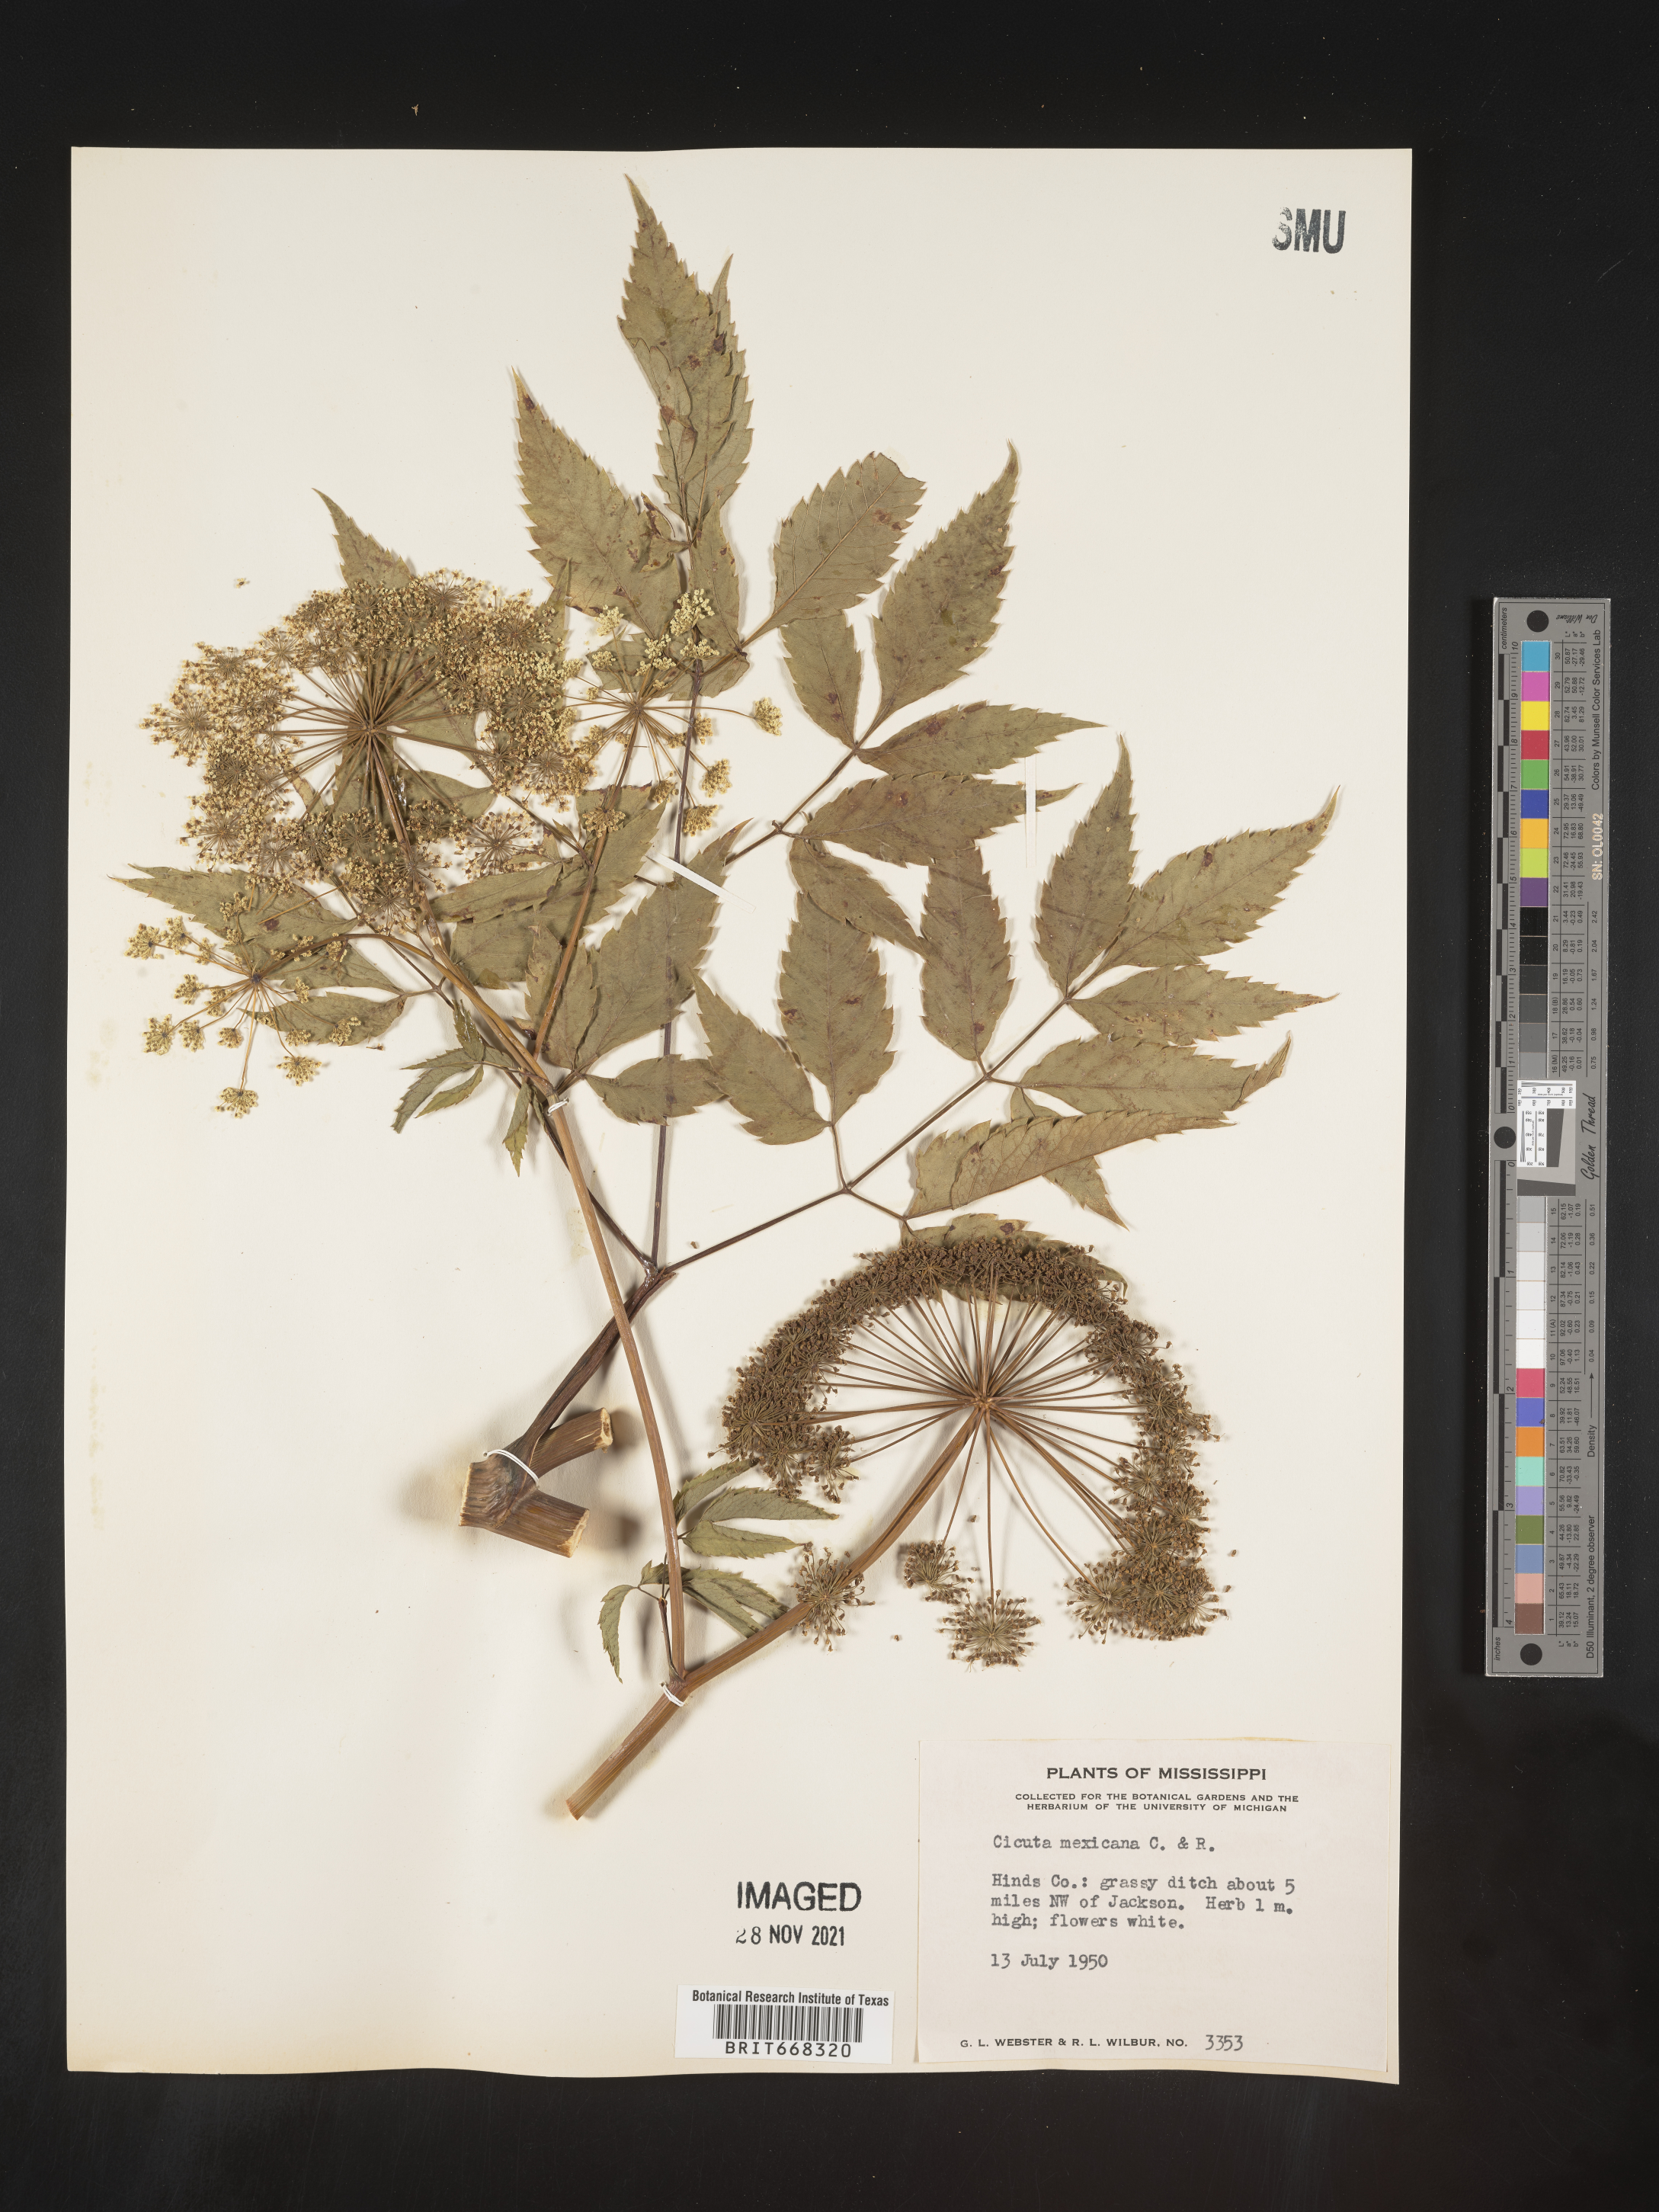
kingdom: Plantae
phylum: Tracheophyta
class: Magnoliopsida
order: Apiales
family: Apiaceae
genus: Cicuta
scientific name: Cicuta
